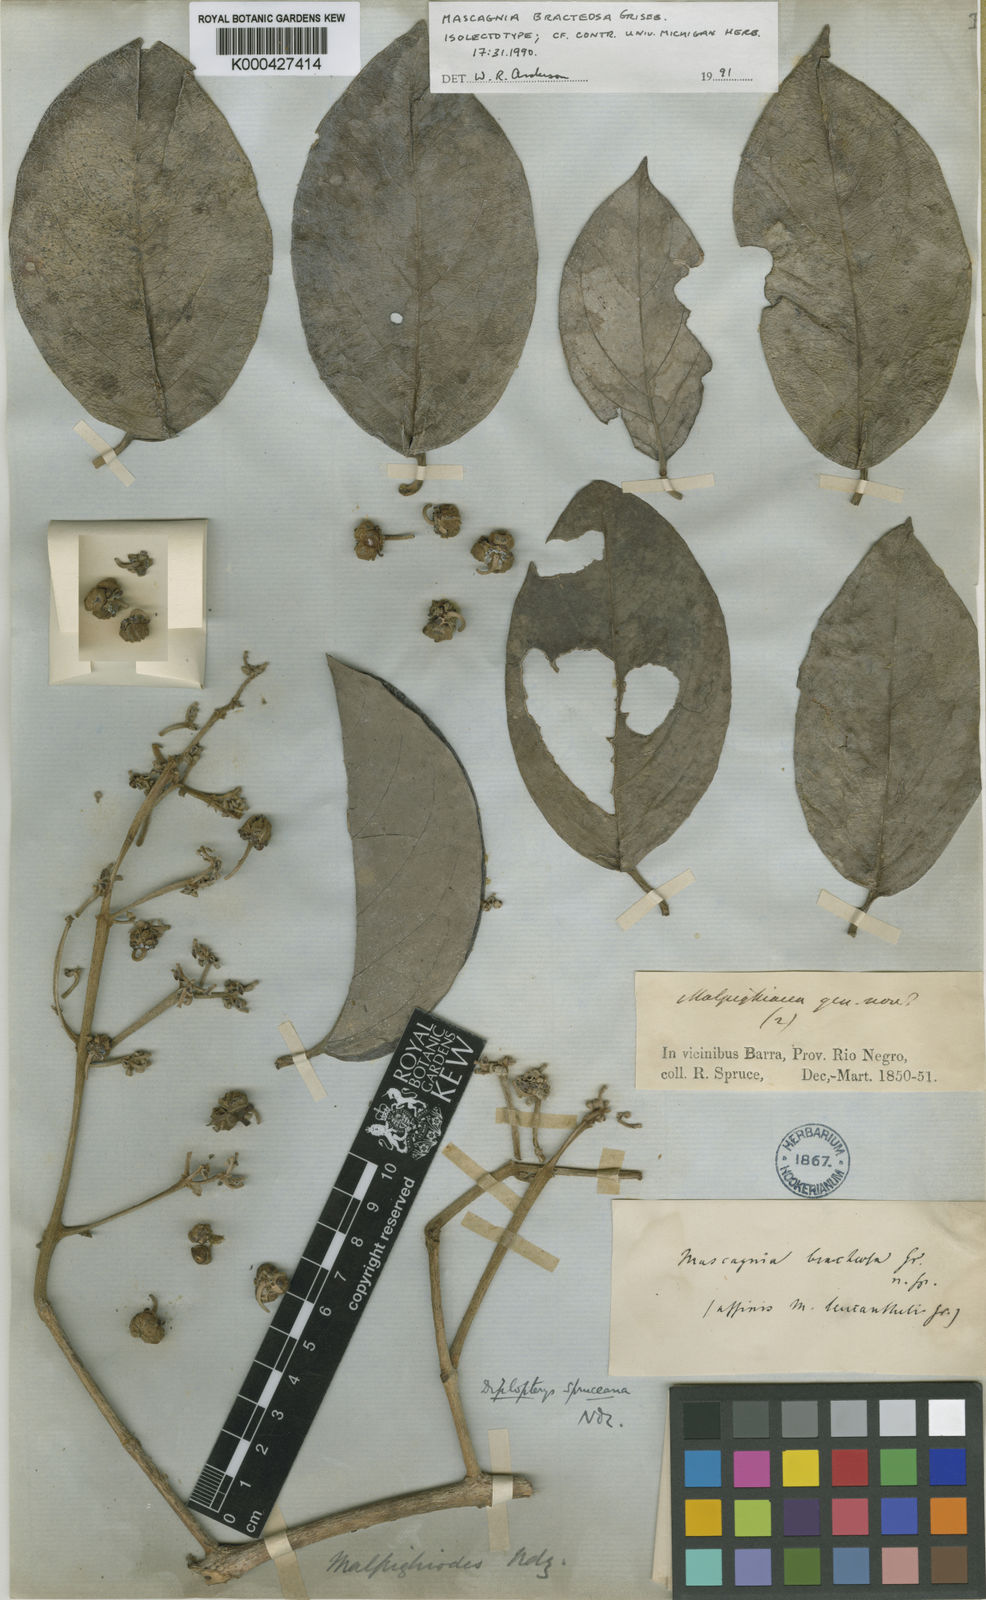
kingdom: Plantae
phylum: Tracheophyta
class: Magnoliopsida
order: Malpighiales
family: Malpighiaceae
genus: Malpighiodes
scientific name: Malpighiodes bracteosa
